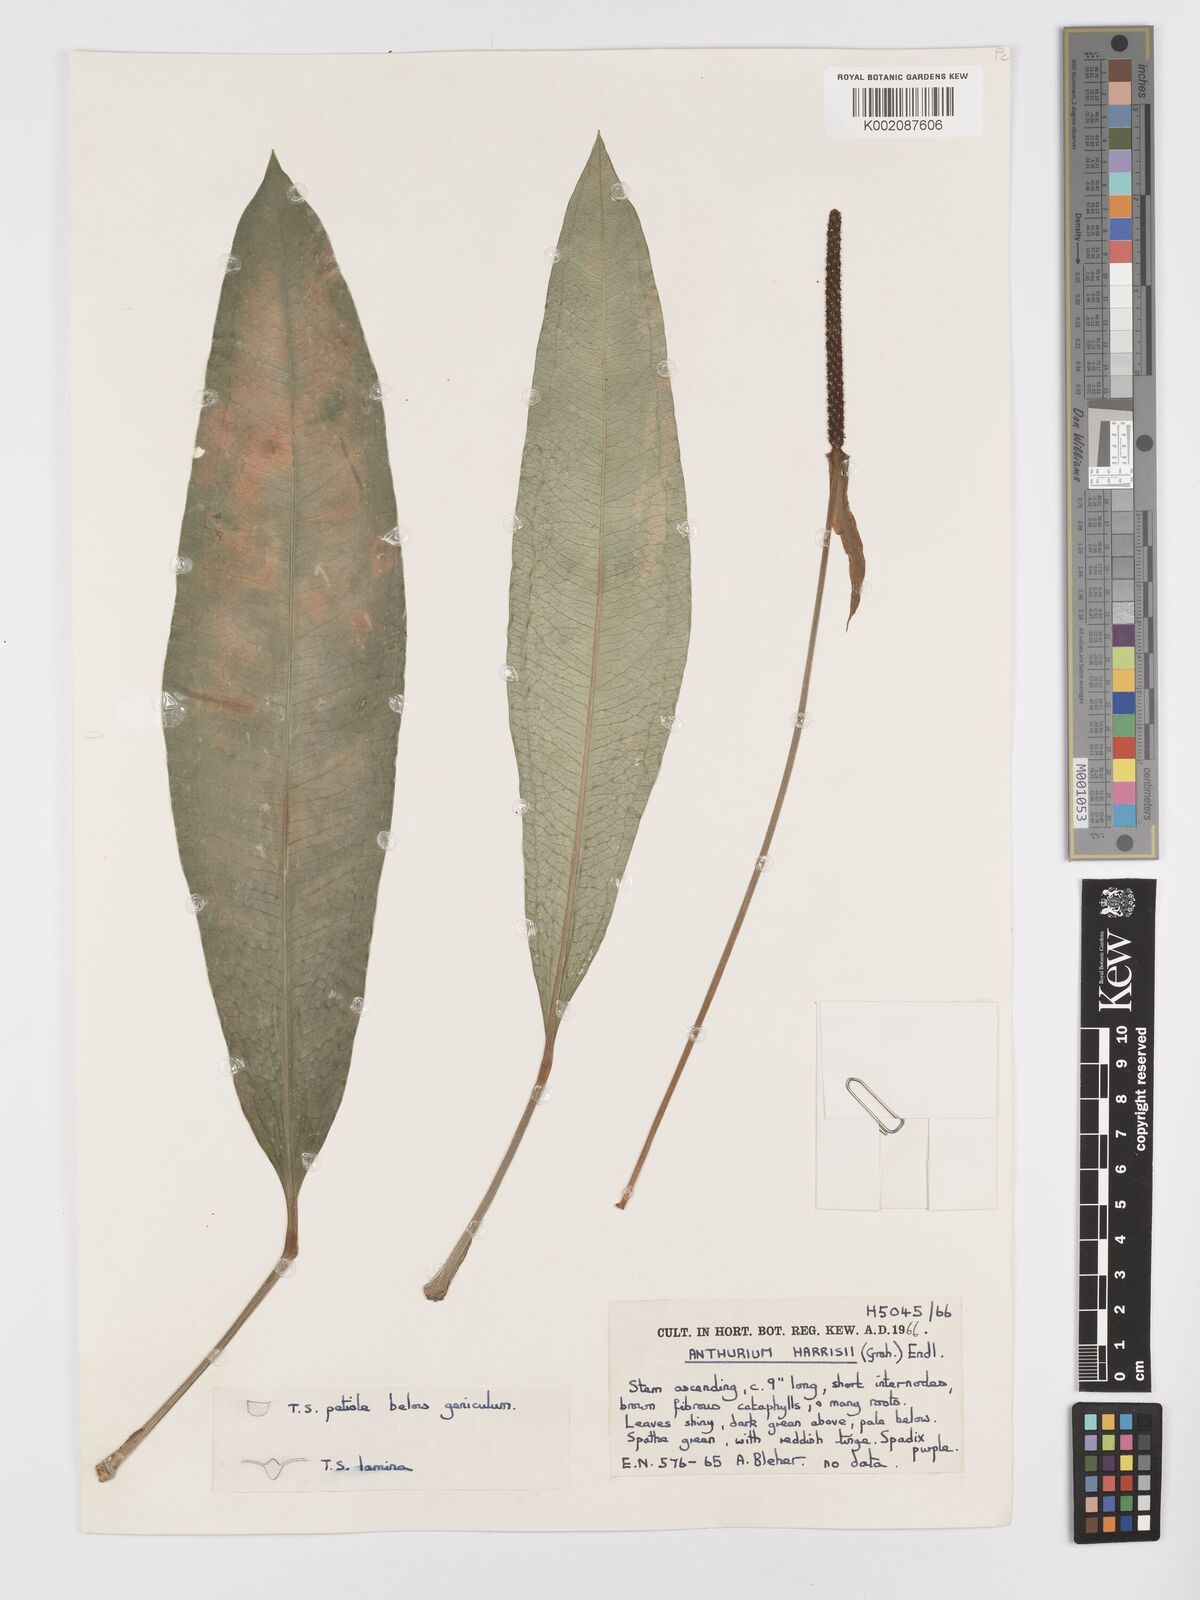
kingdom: Plantae
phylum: Tracheophyta
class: Liliopsida
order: Alismatales
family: Araceae
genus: Anthurium
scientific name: Anthurium harrisii
